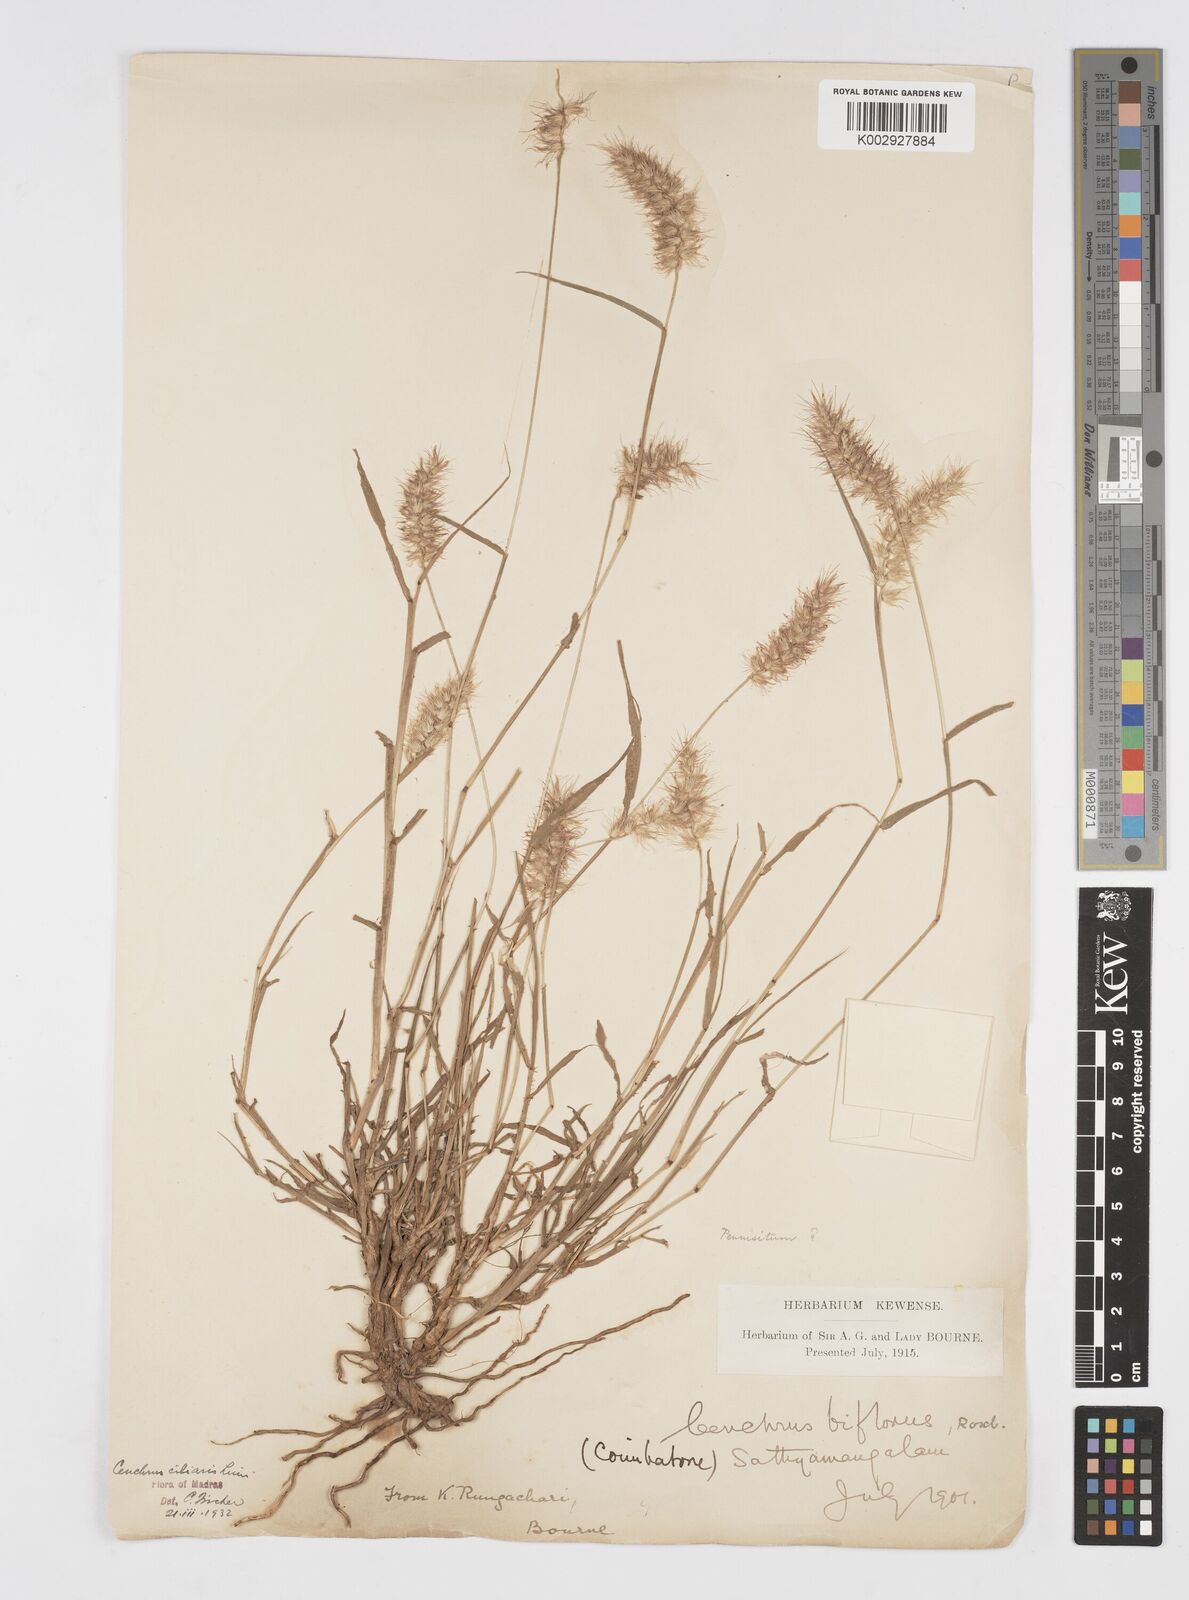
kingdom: Plantae
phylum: Tracheophyta
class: Liliopsida
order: Poales
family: Poaceae
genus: Cenchrus
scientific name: Cenchrus ciliaris
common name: Buffelgrass
